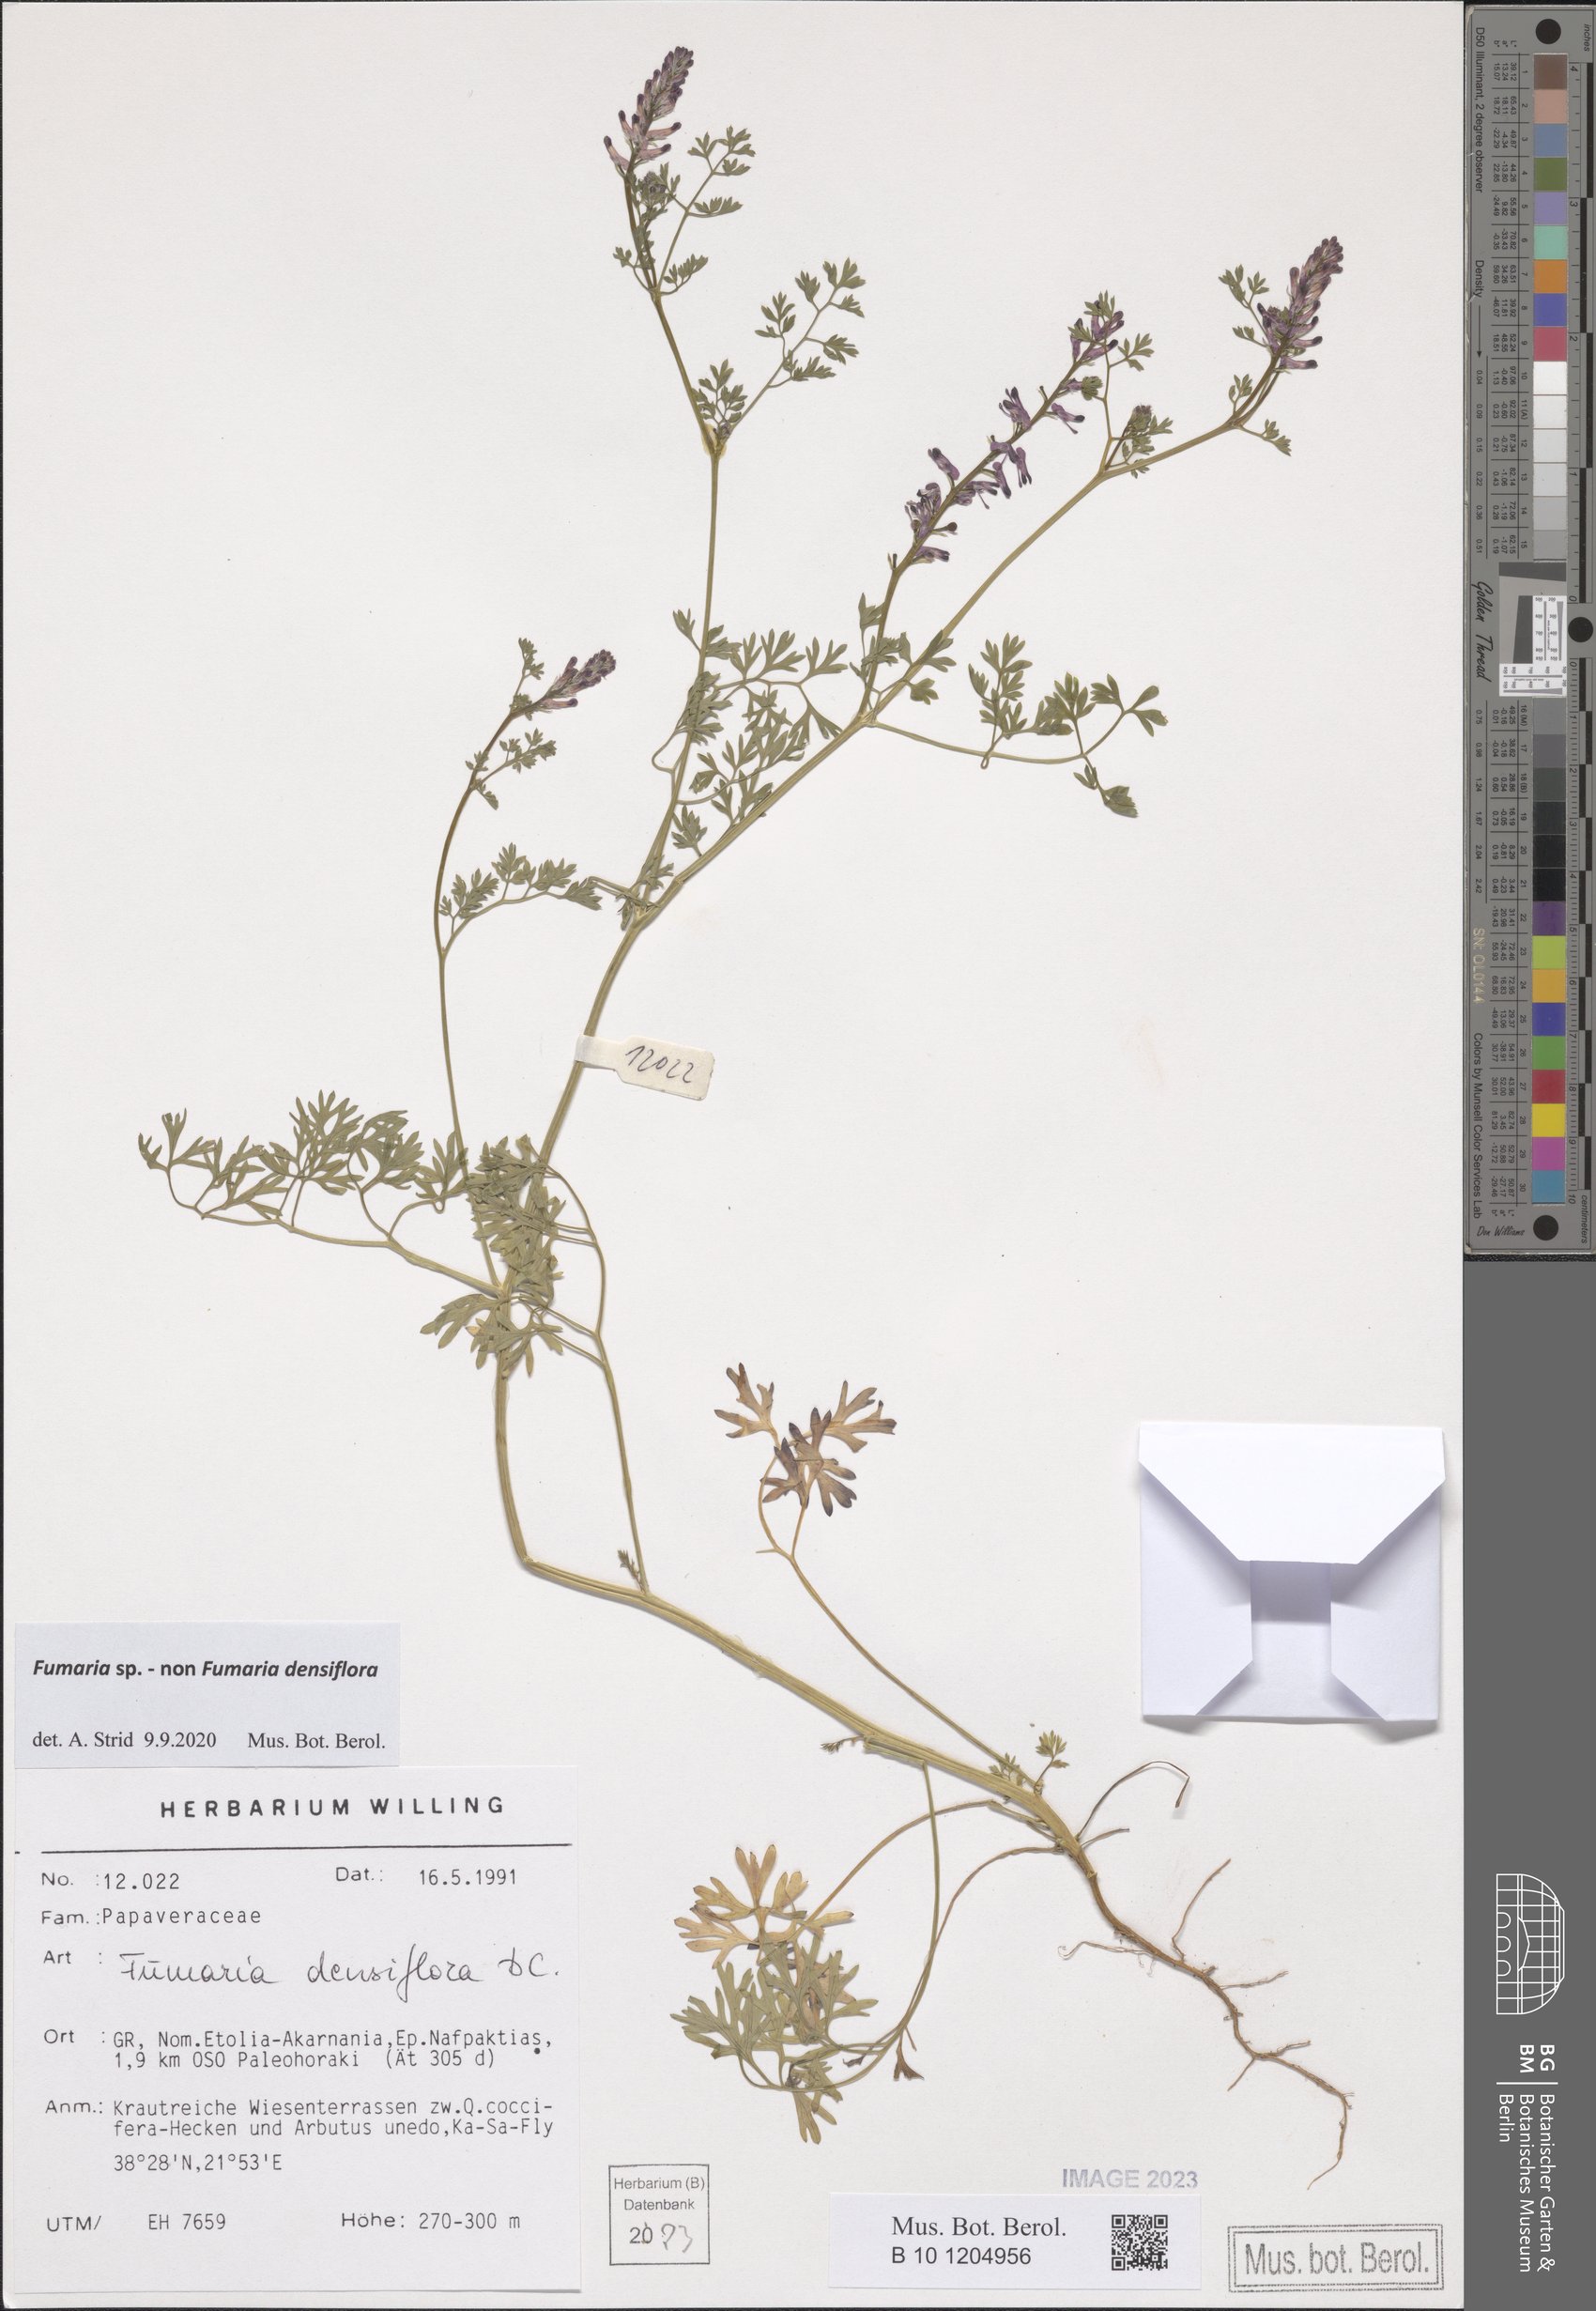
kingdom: Plantae
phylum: Tracheophyta
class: Magnoliopsida
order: Ranunculales
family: Papaveraceae
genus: Fumaria
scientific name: Fumaria
